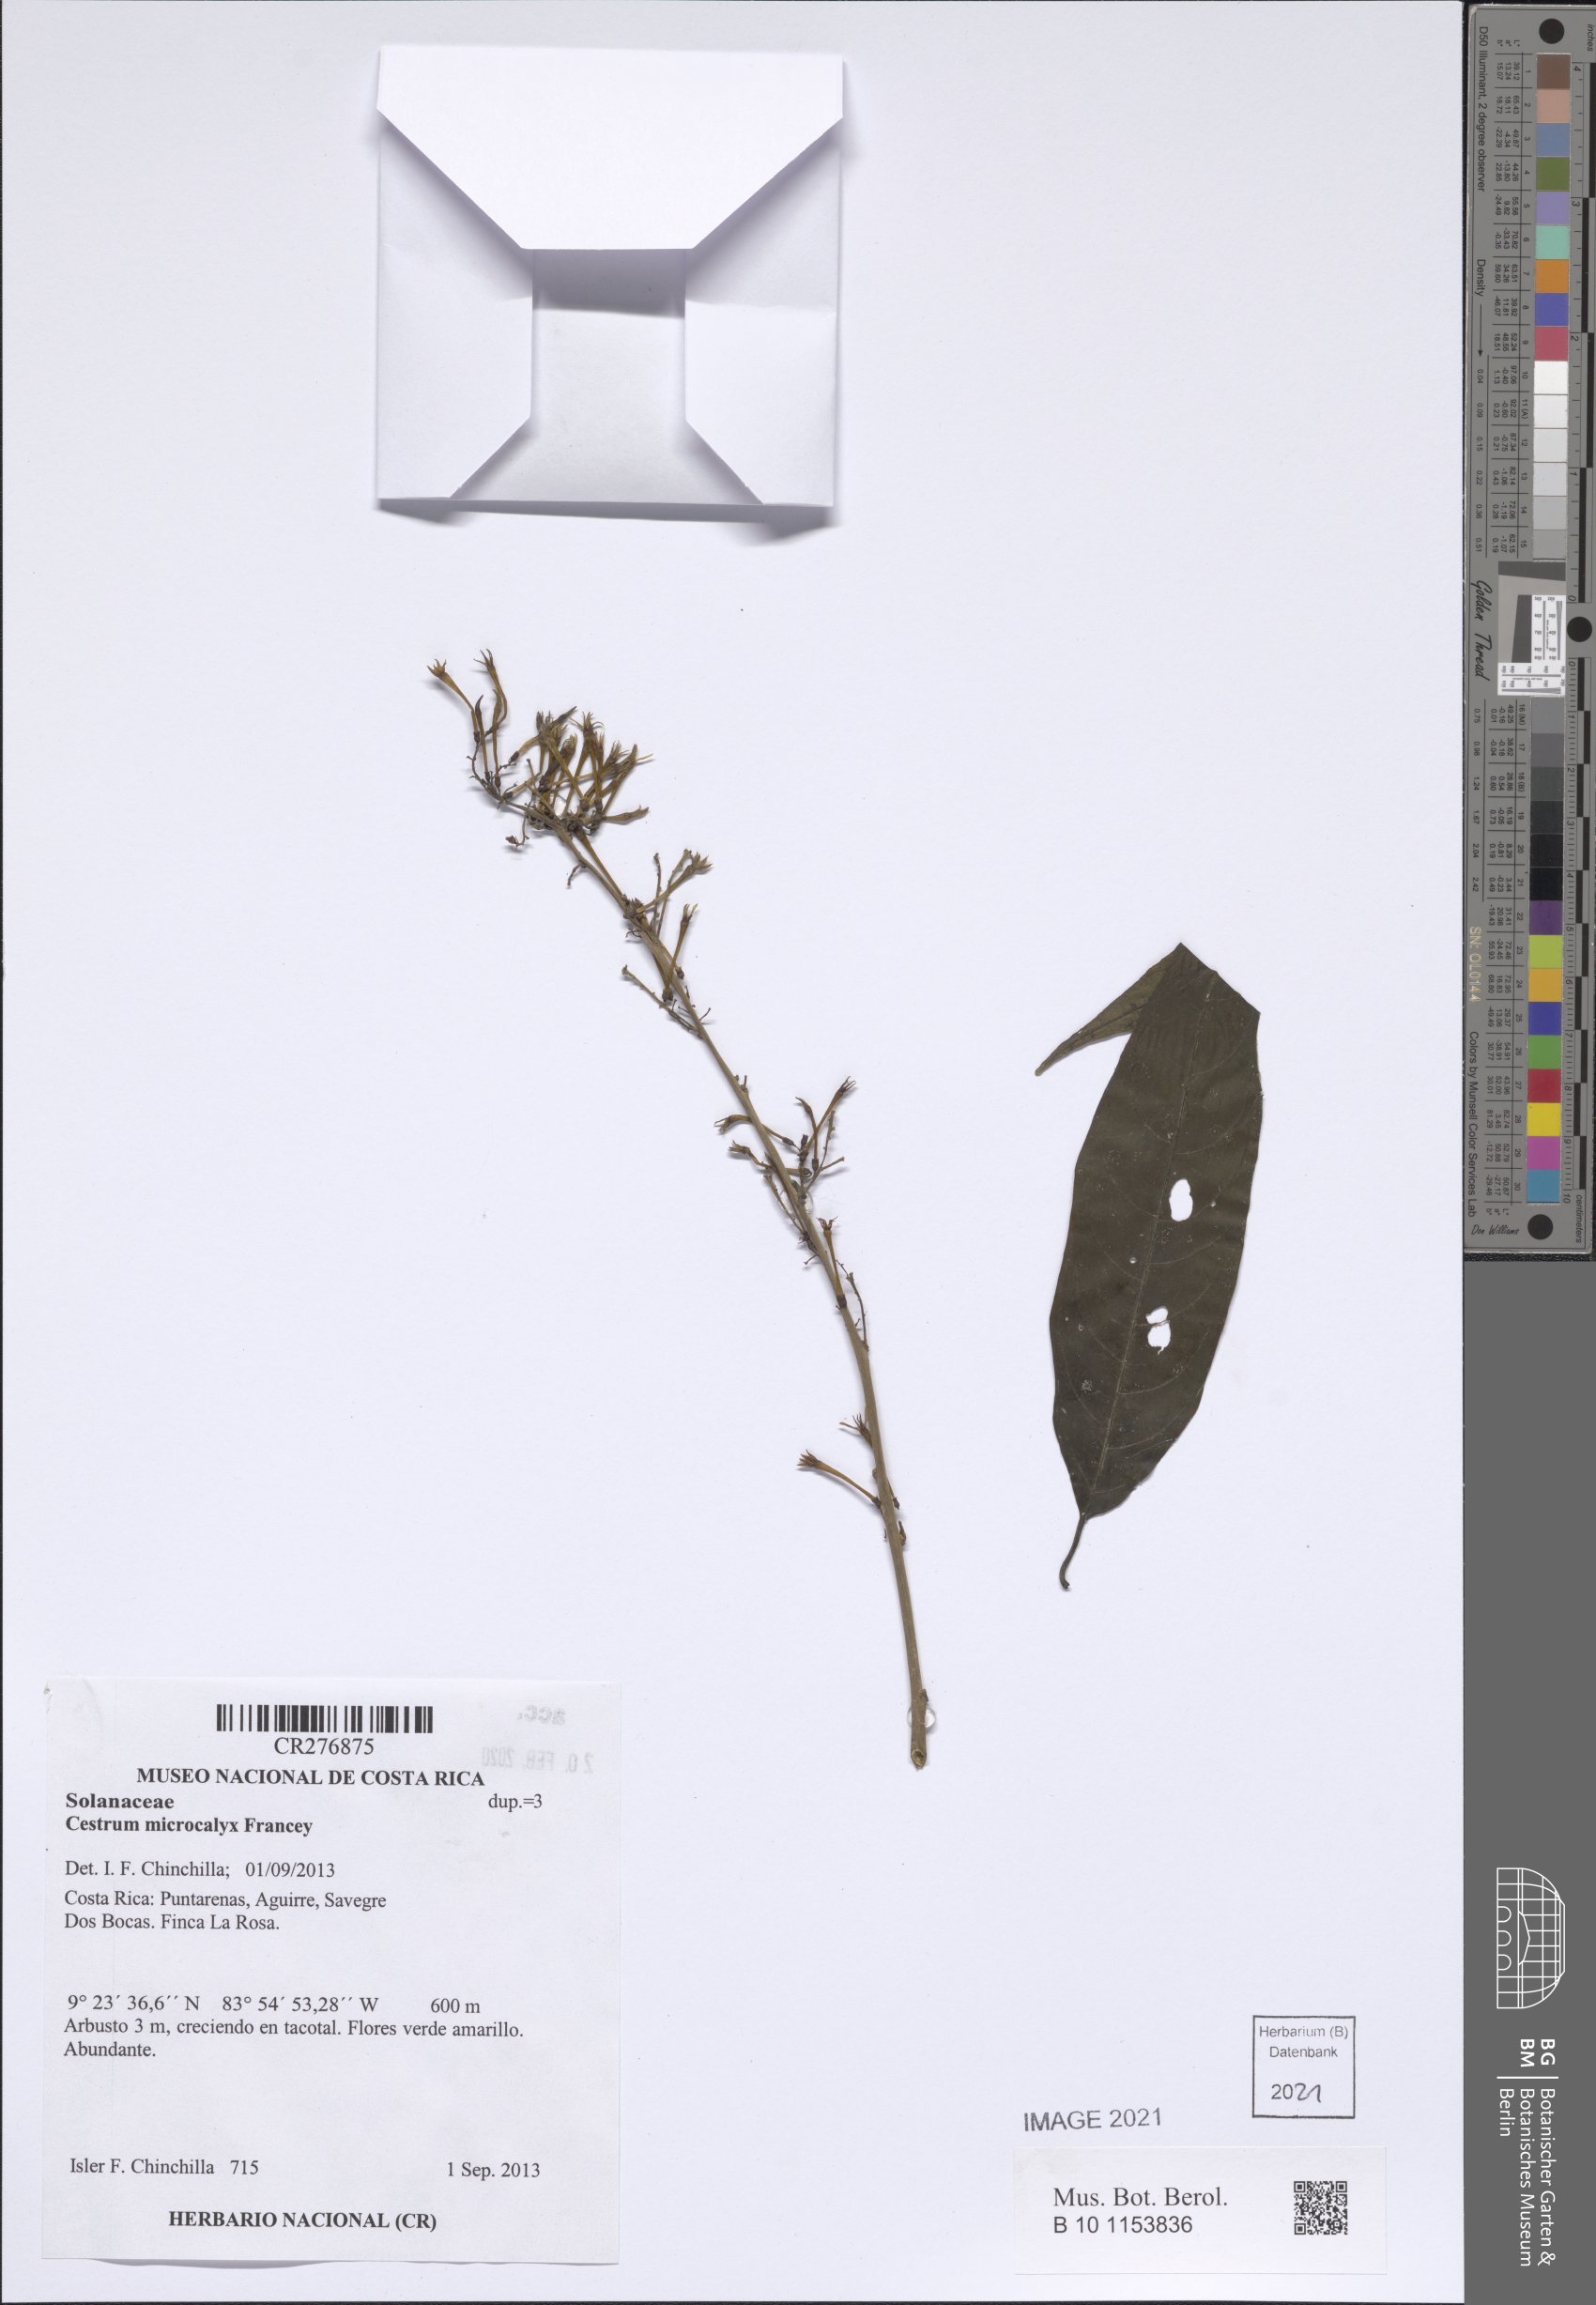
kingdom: Plantae
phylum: Tracheophyta
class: Magnoliopsida
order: Solanales
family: Solanaceae
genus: Cestrum
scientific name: Cestrum microcalyx
